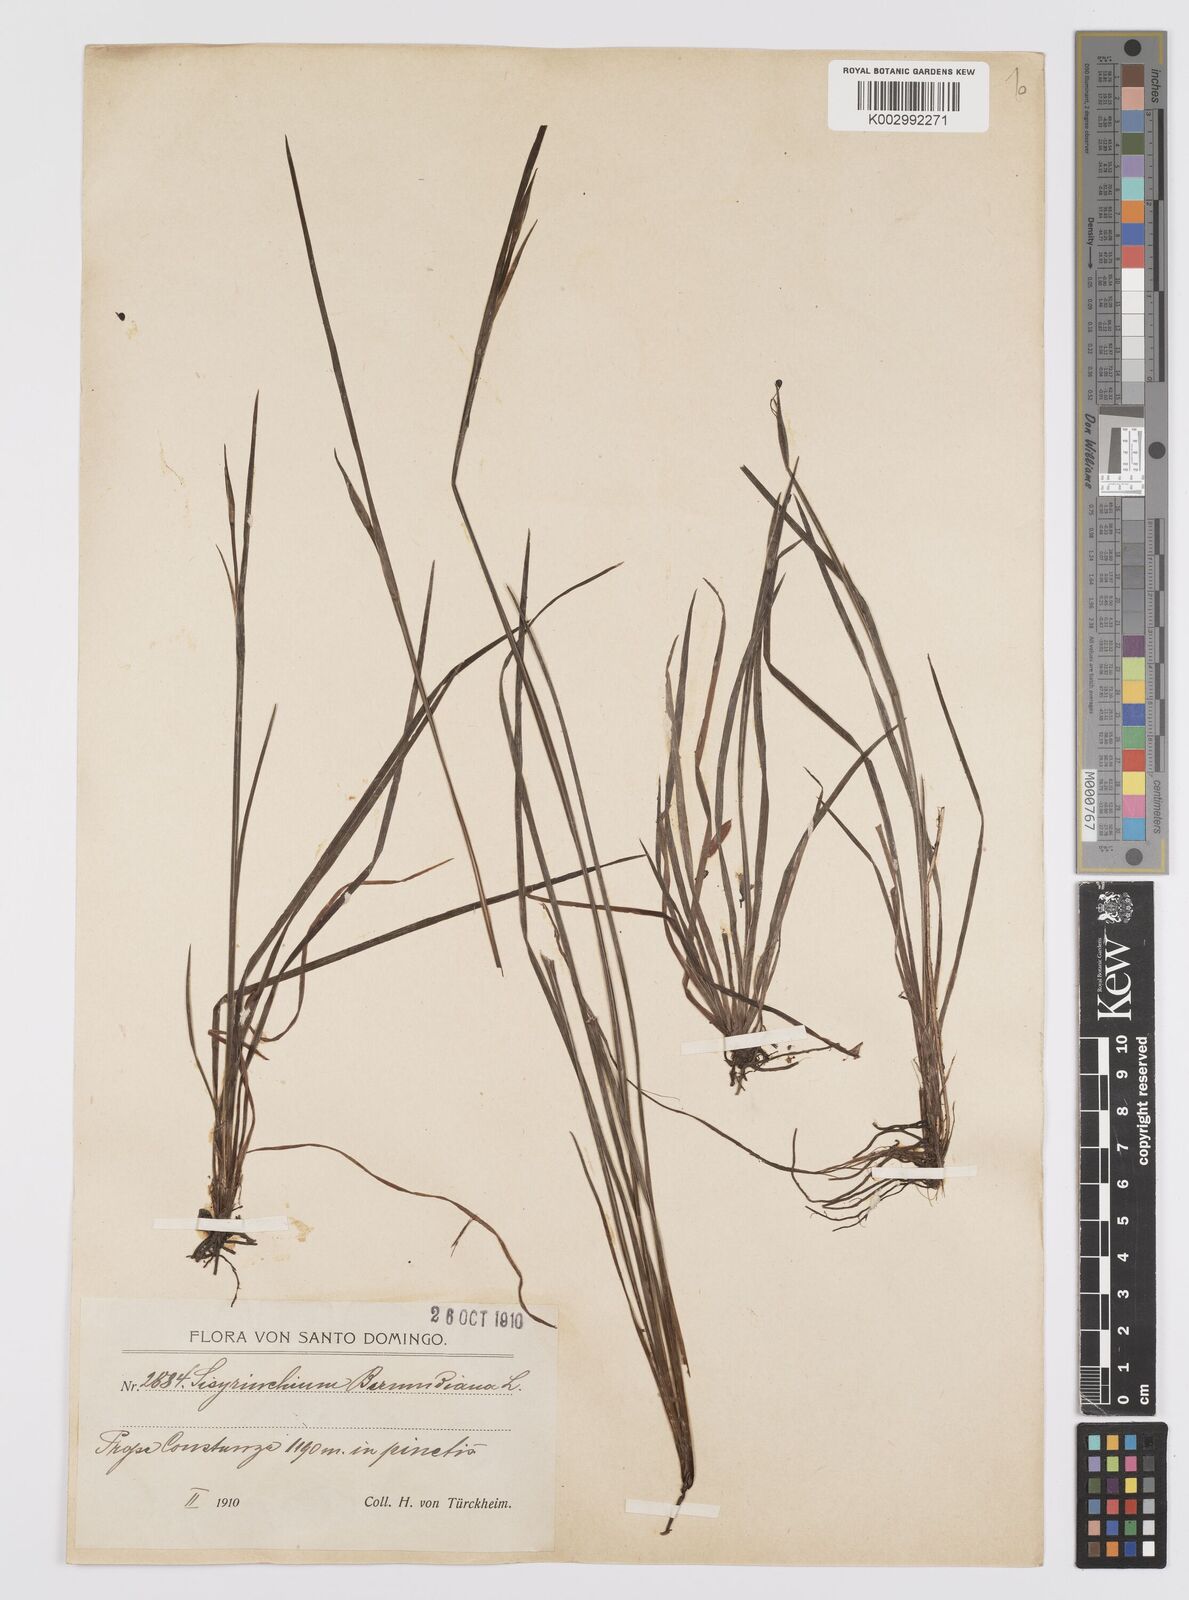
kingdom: Plantae
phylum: Tracheophyta
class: Liliopsida
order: Asparagales
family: Iridaceae
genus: Sisyrinchium
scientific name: Sisyrinchium bermudiana
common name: Blue-eyed-grass
